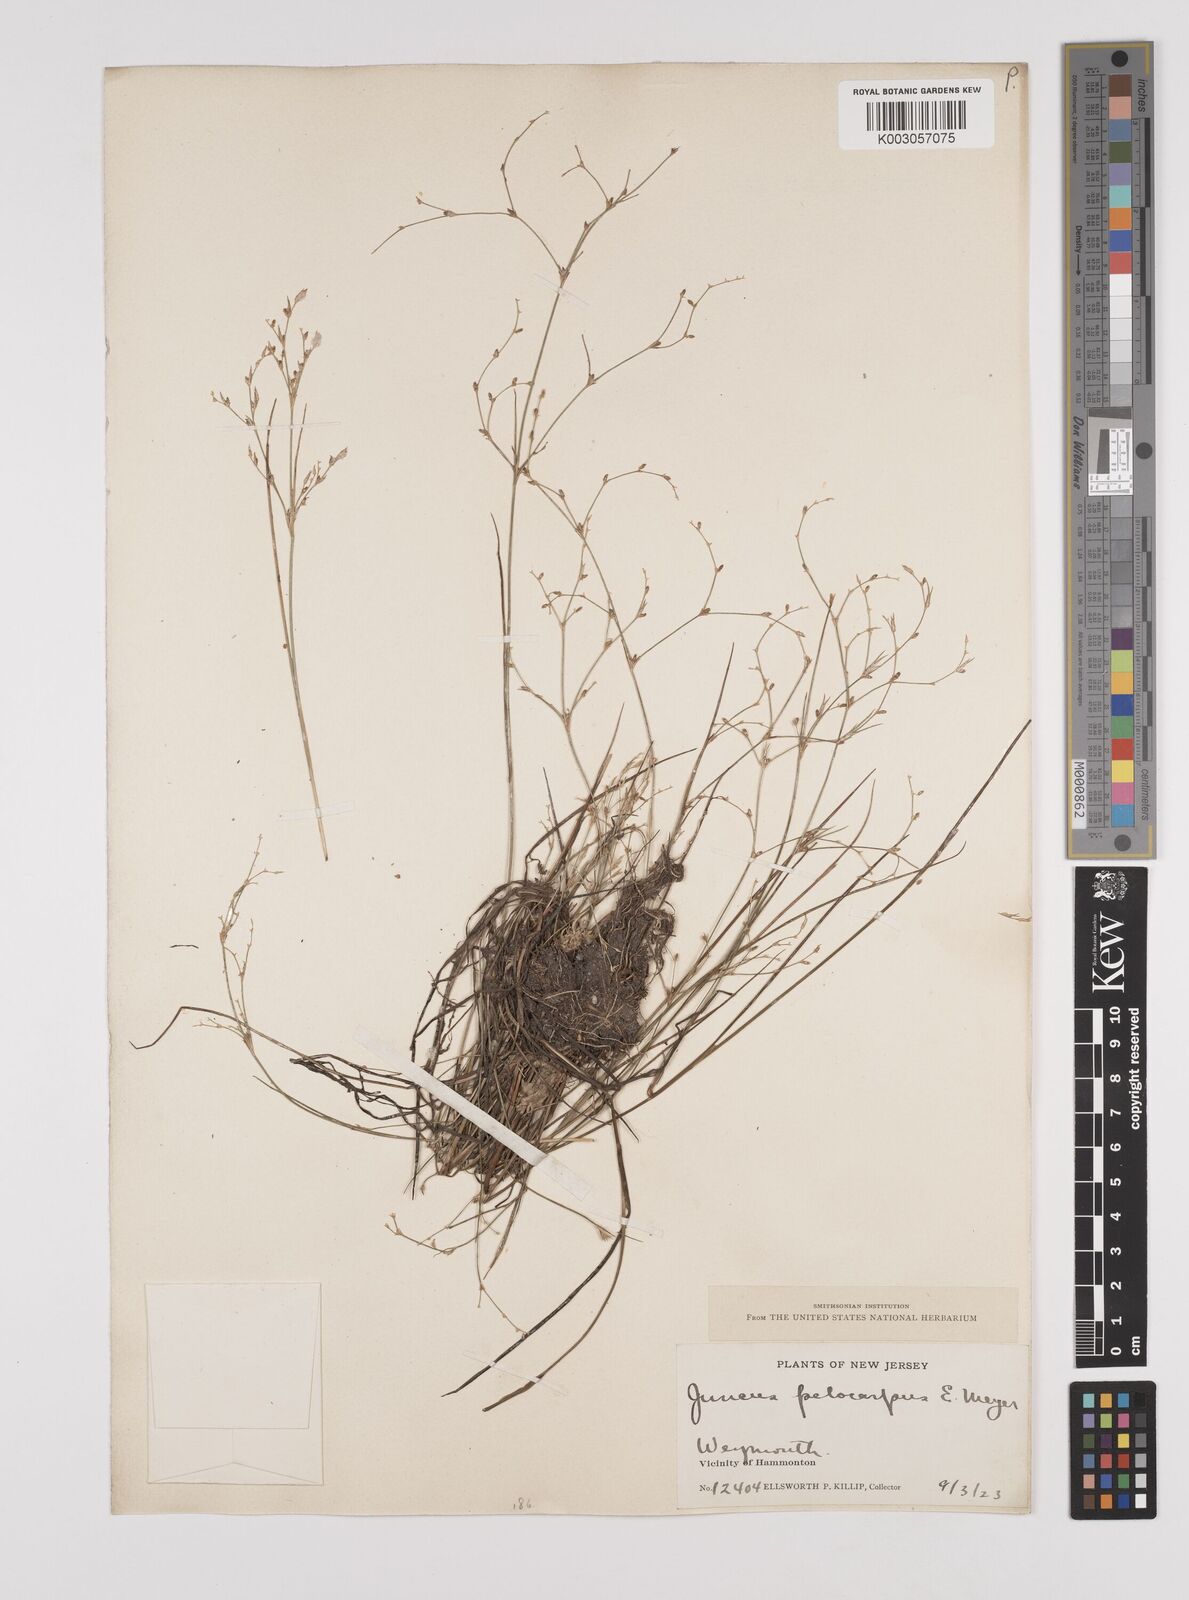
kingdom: Plantae
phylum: Tracheophyta
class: Liliopsida
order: Poales
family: Juncaceae
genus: Juncus
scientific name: Juncus pelocarpus
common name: Brown-fruited rush
